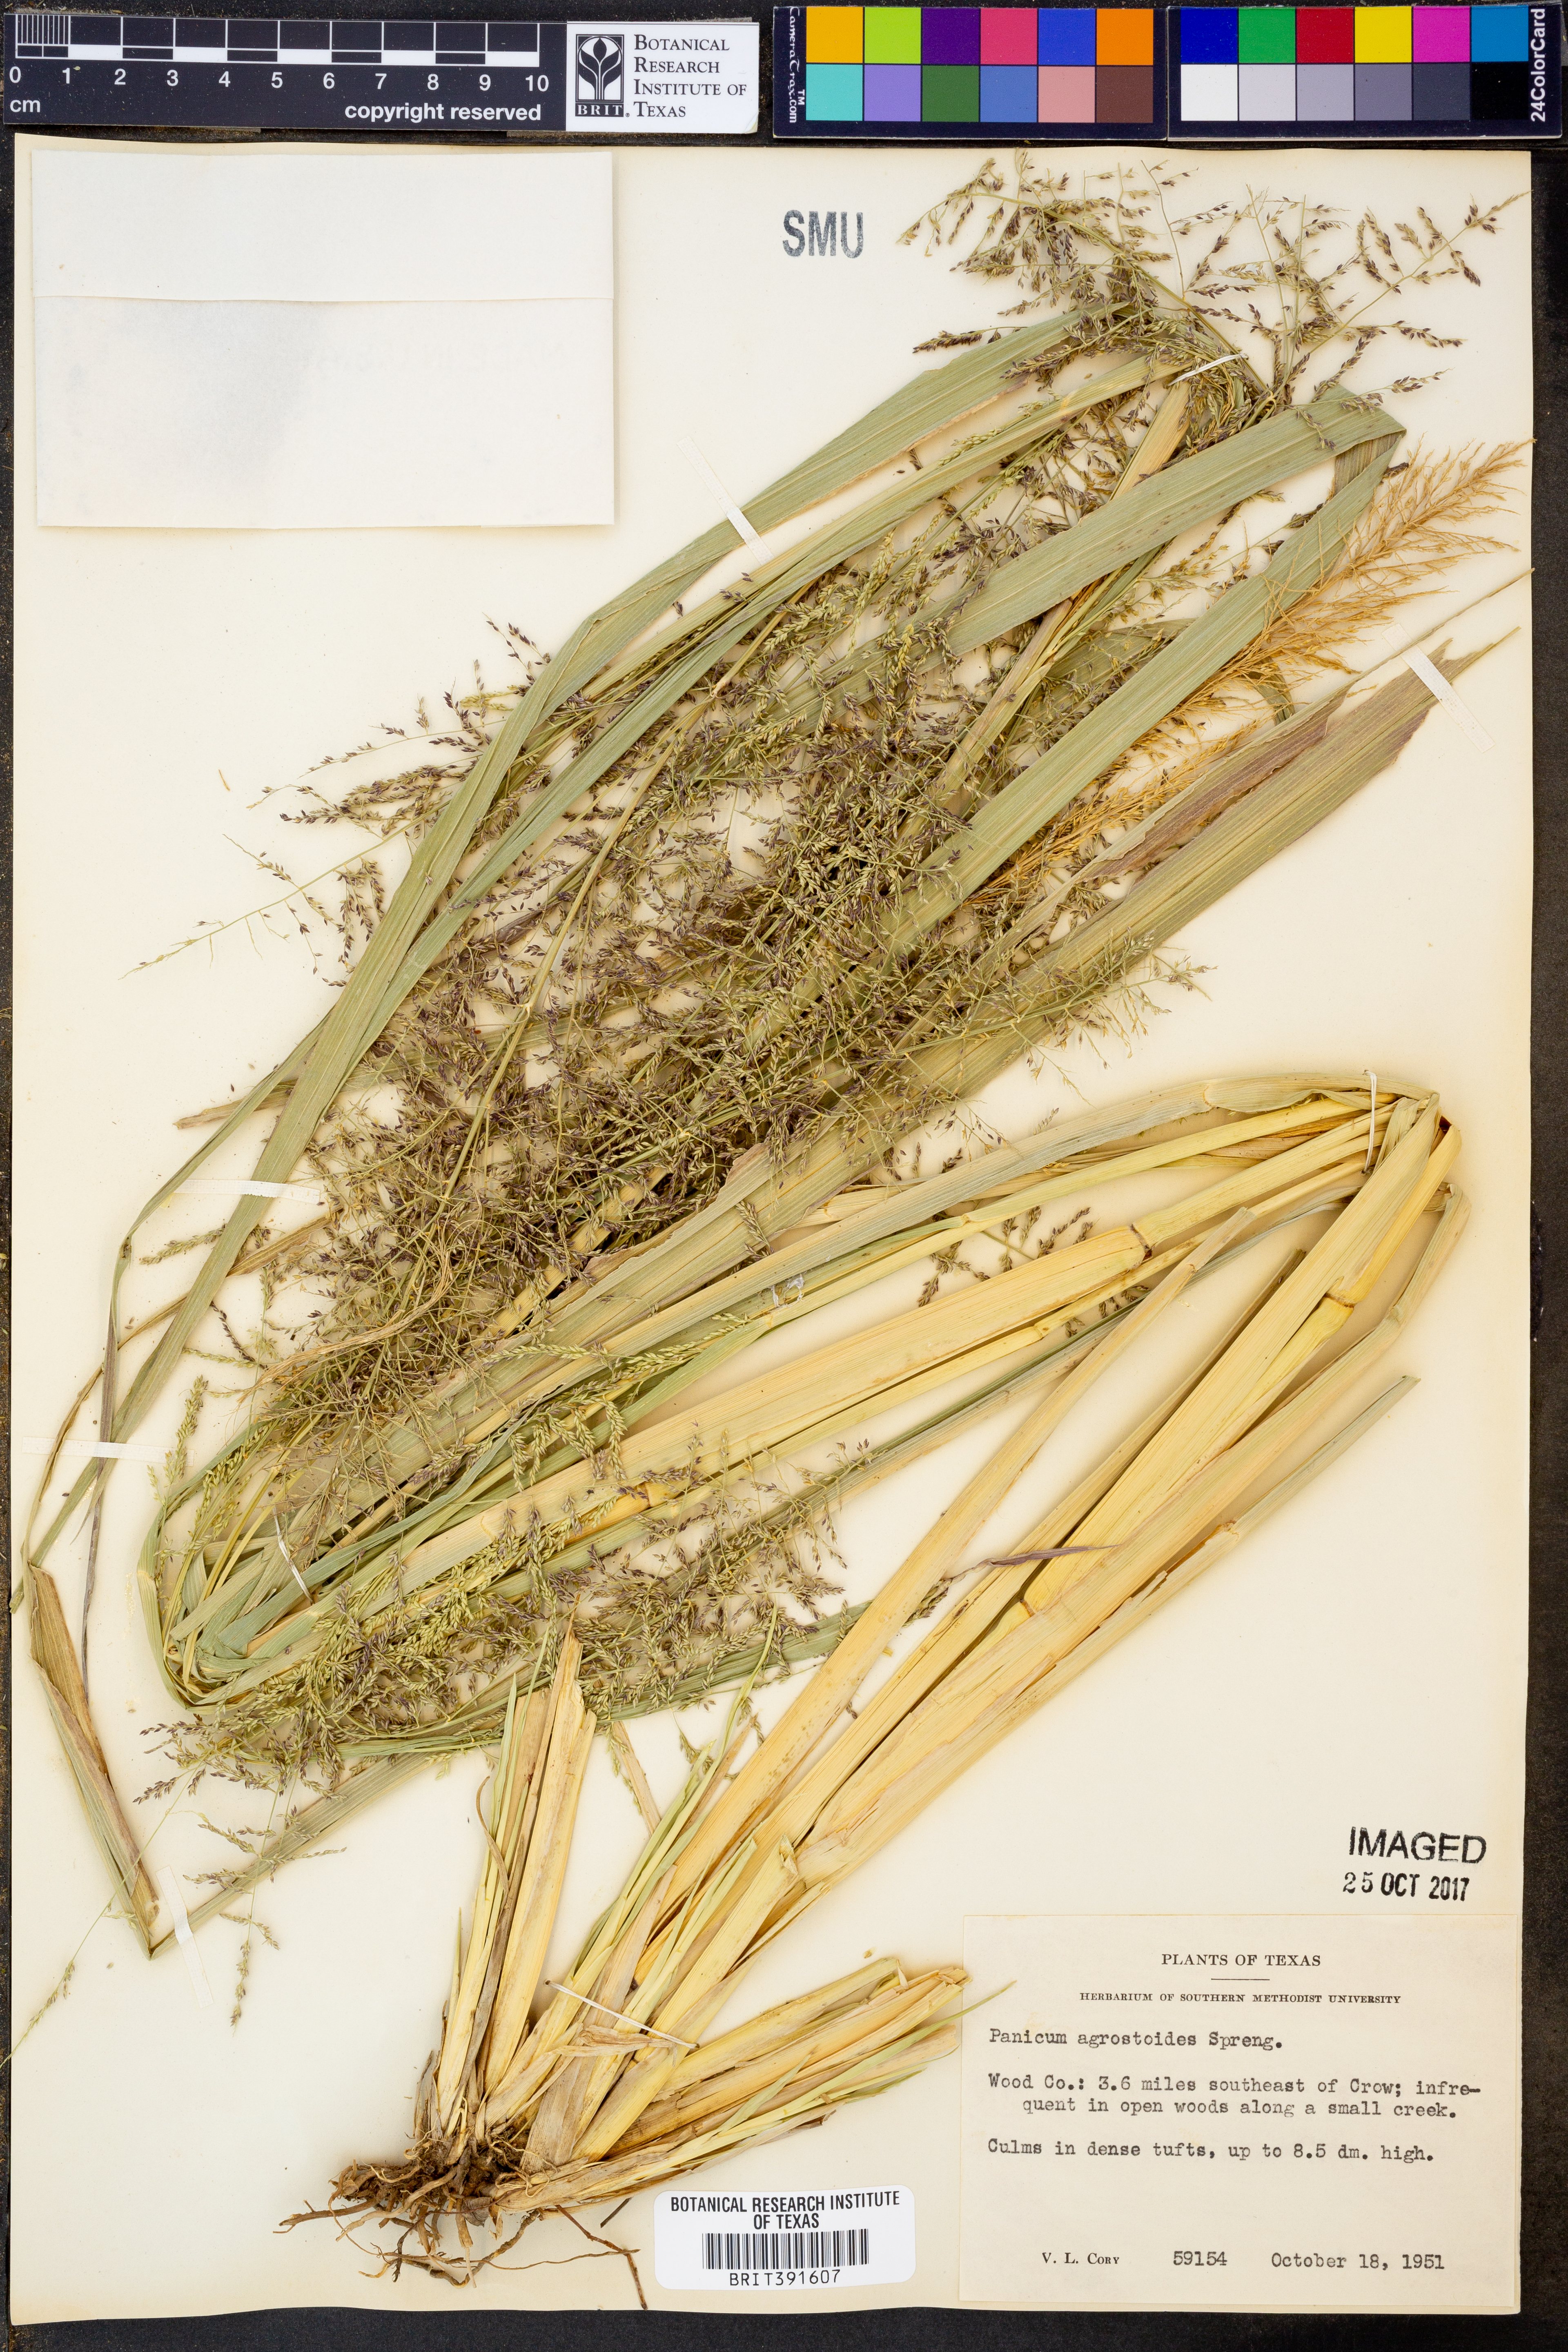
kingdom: Plantae
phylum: Tracheophyta
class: Liliopsida
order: Poales
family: Poaceae
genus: Steinchisma
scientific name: Steinchisma laxum
